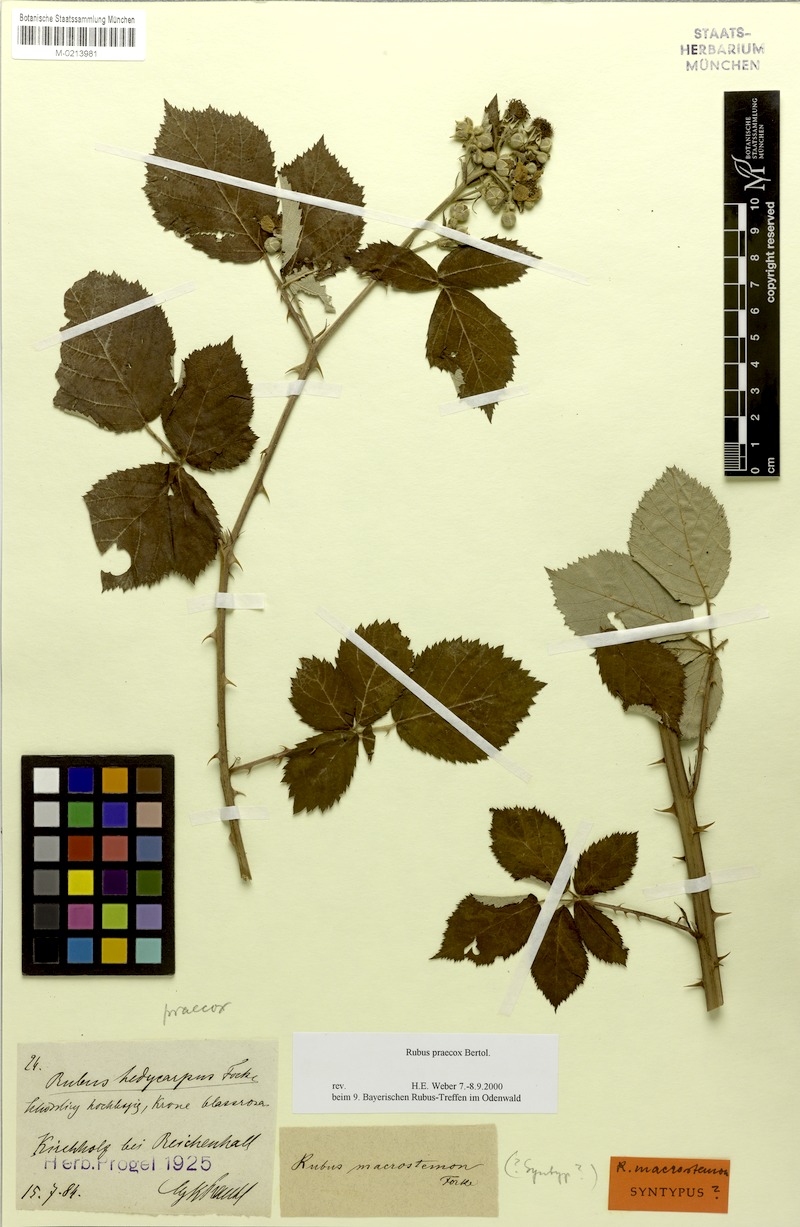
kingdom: Plantae
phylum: Tracheophyta
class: Magnoliopsida
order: Rosales
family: Rosaceae
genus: Rubus
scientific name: Rubus praecox
